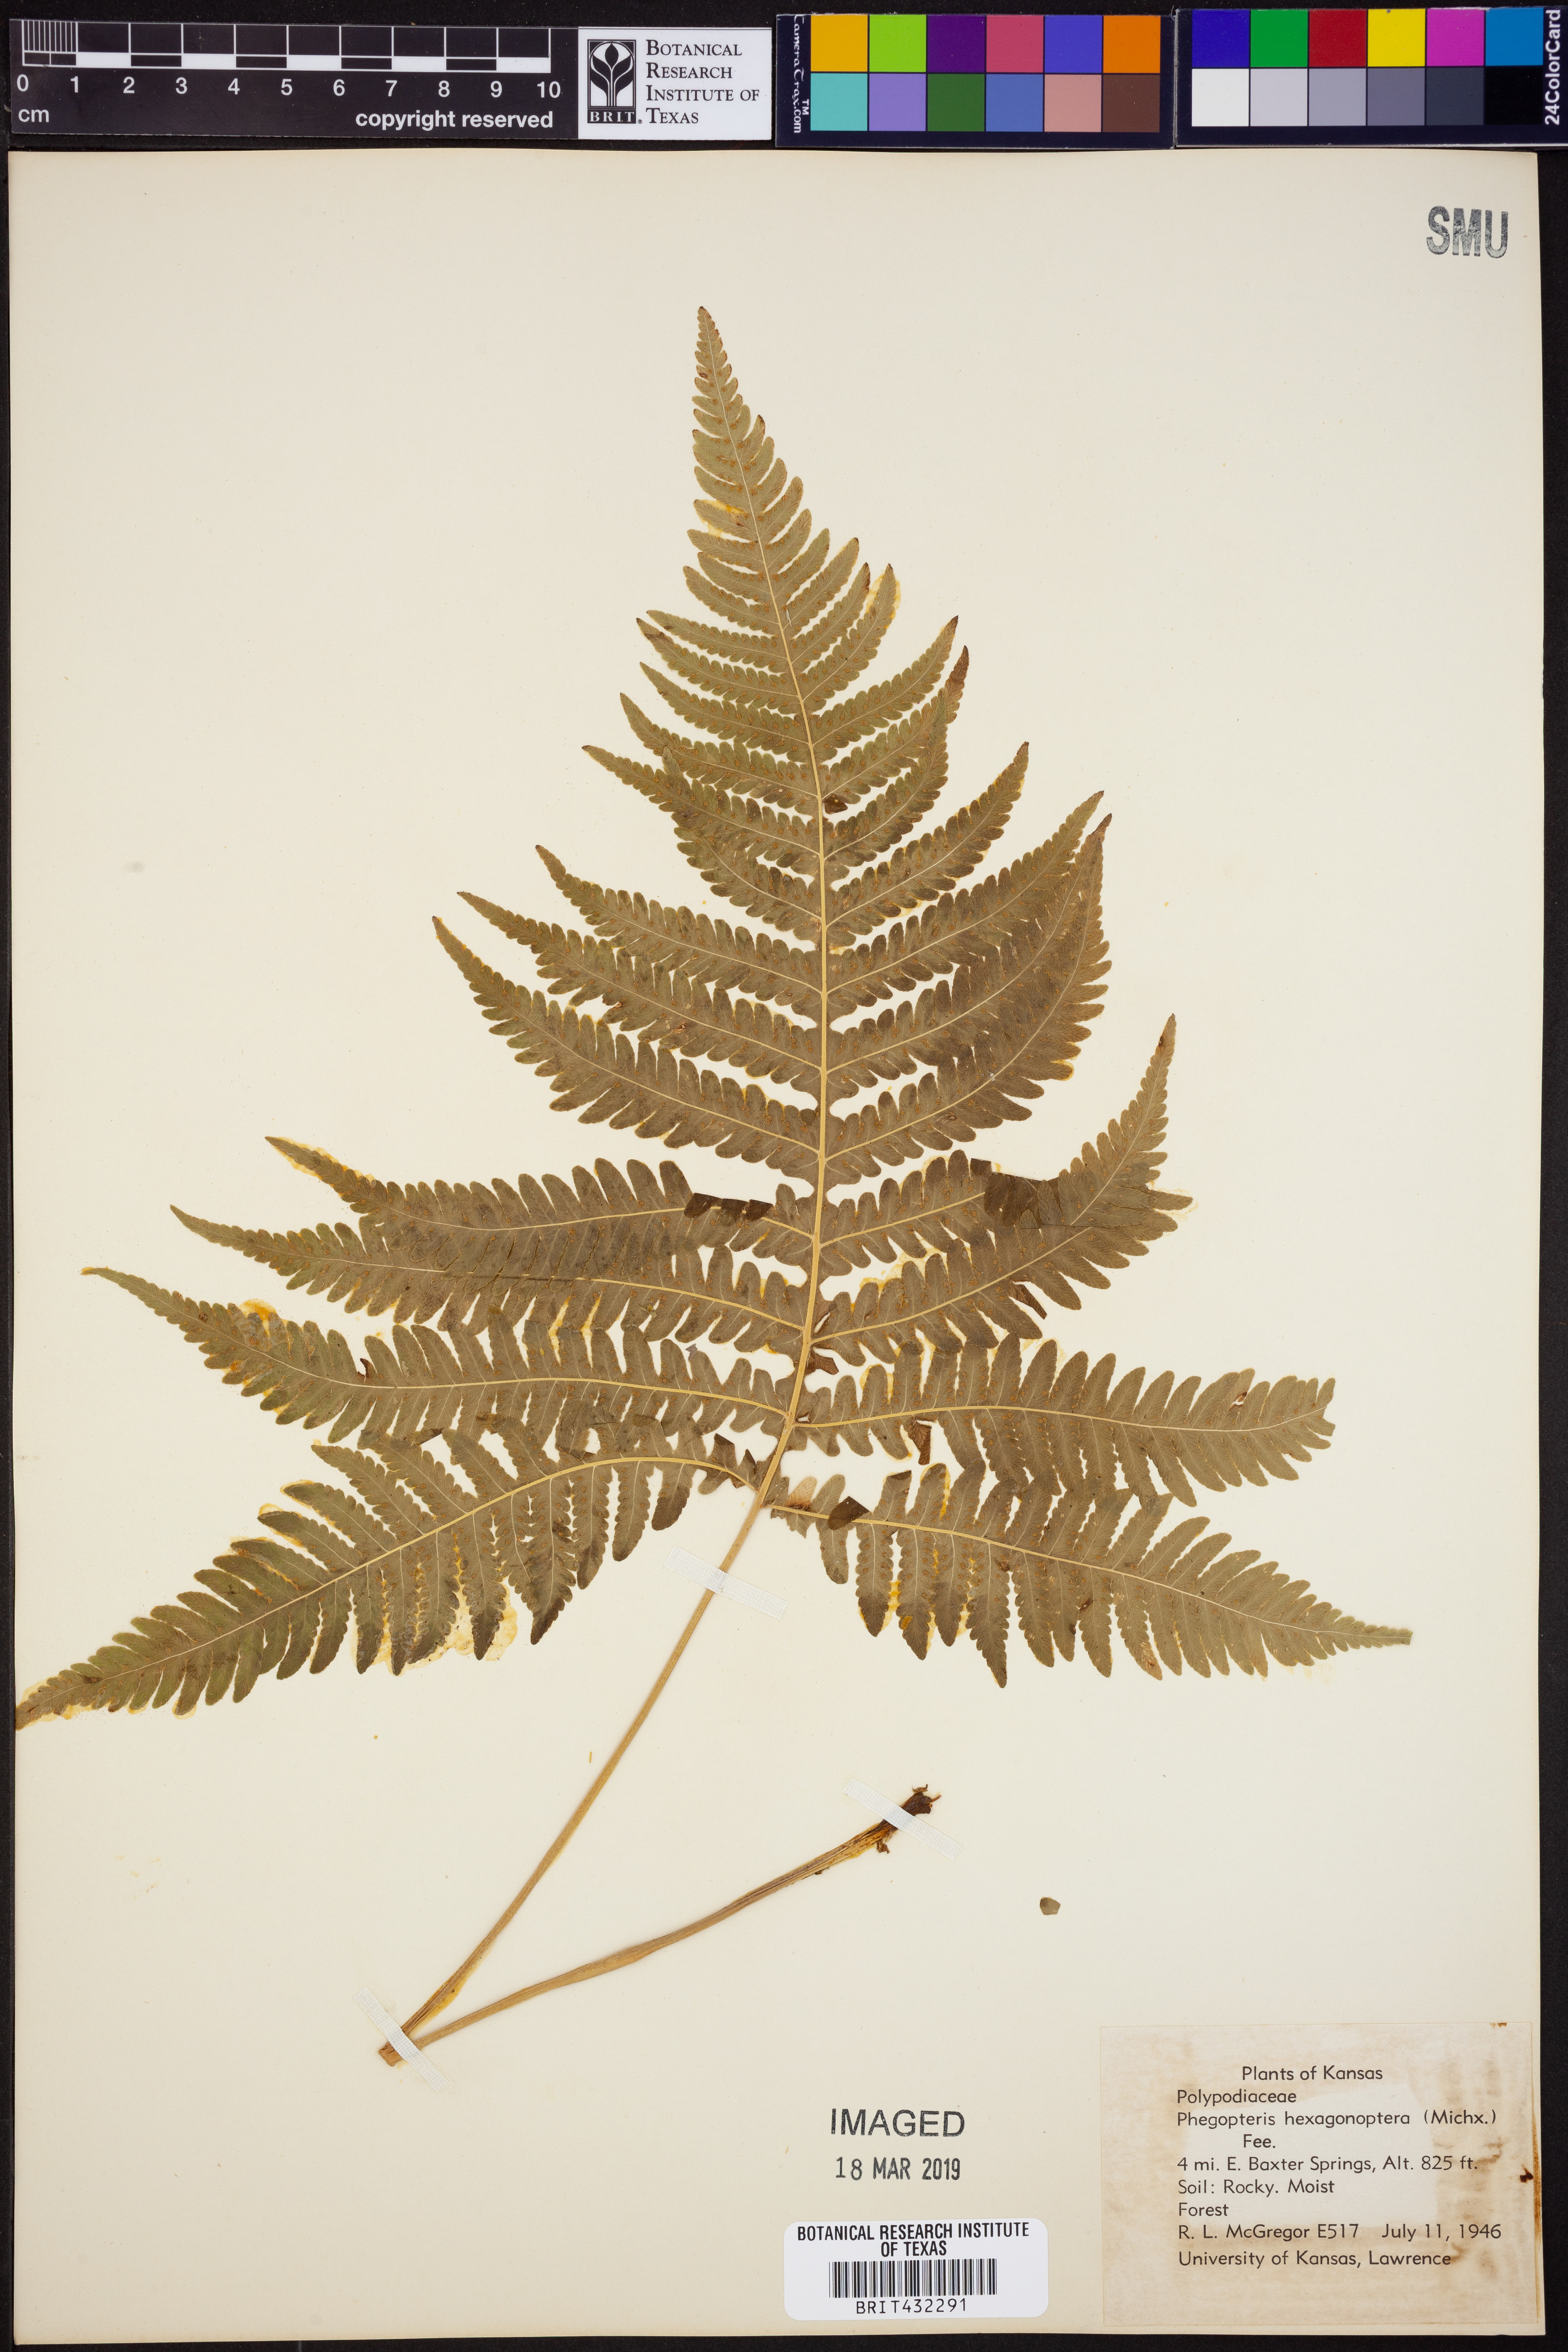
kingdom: Plantae
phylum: Tracheophyta
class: Polypodiopsida
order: Polypodiales
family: Thelypteridaceae
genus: Phegopteris
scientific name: Phegopteris hexagonoptera
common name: Broad beech fern
